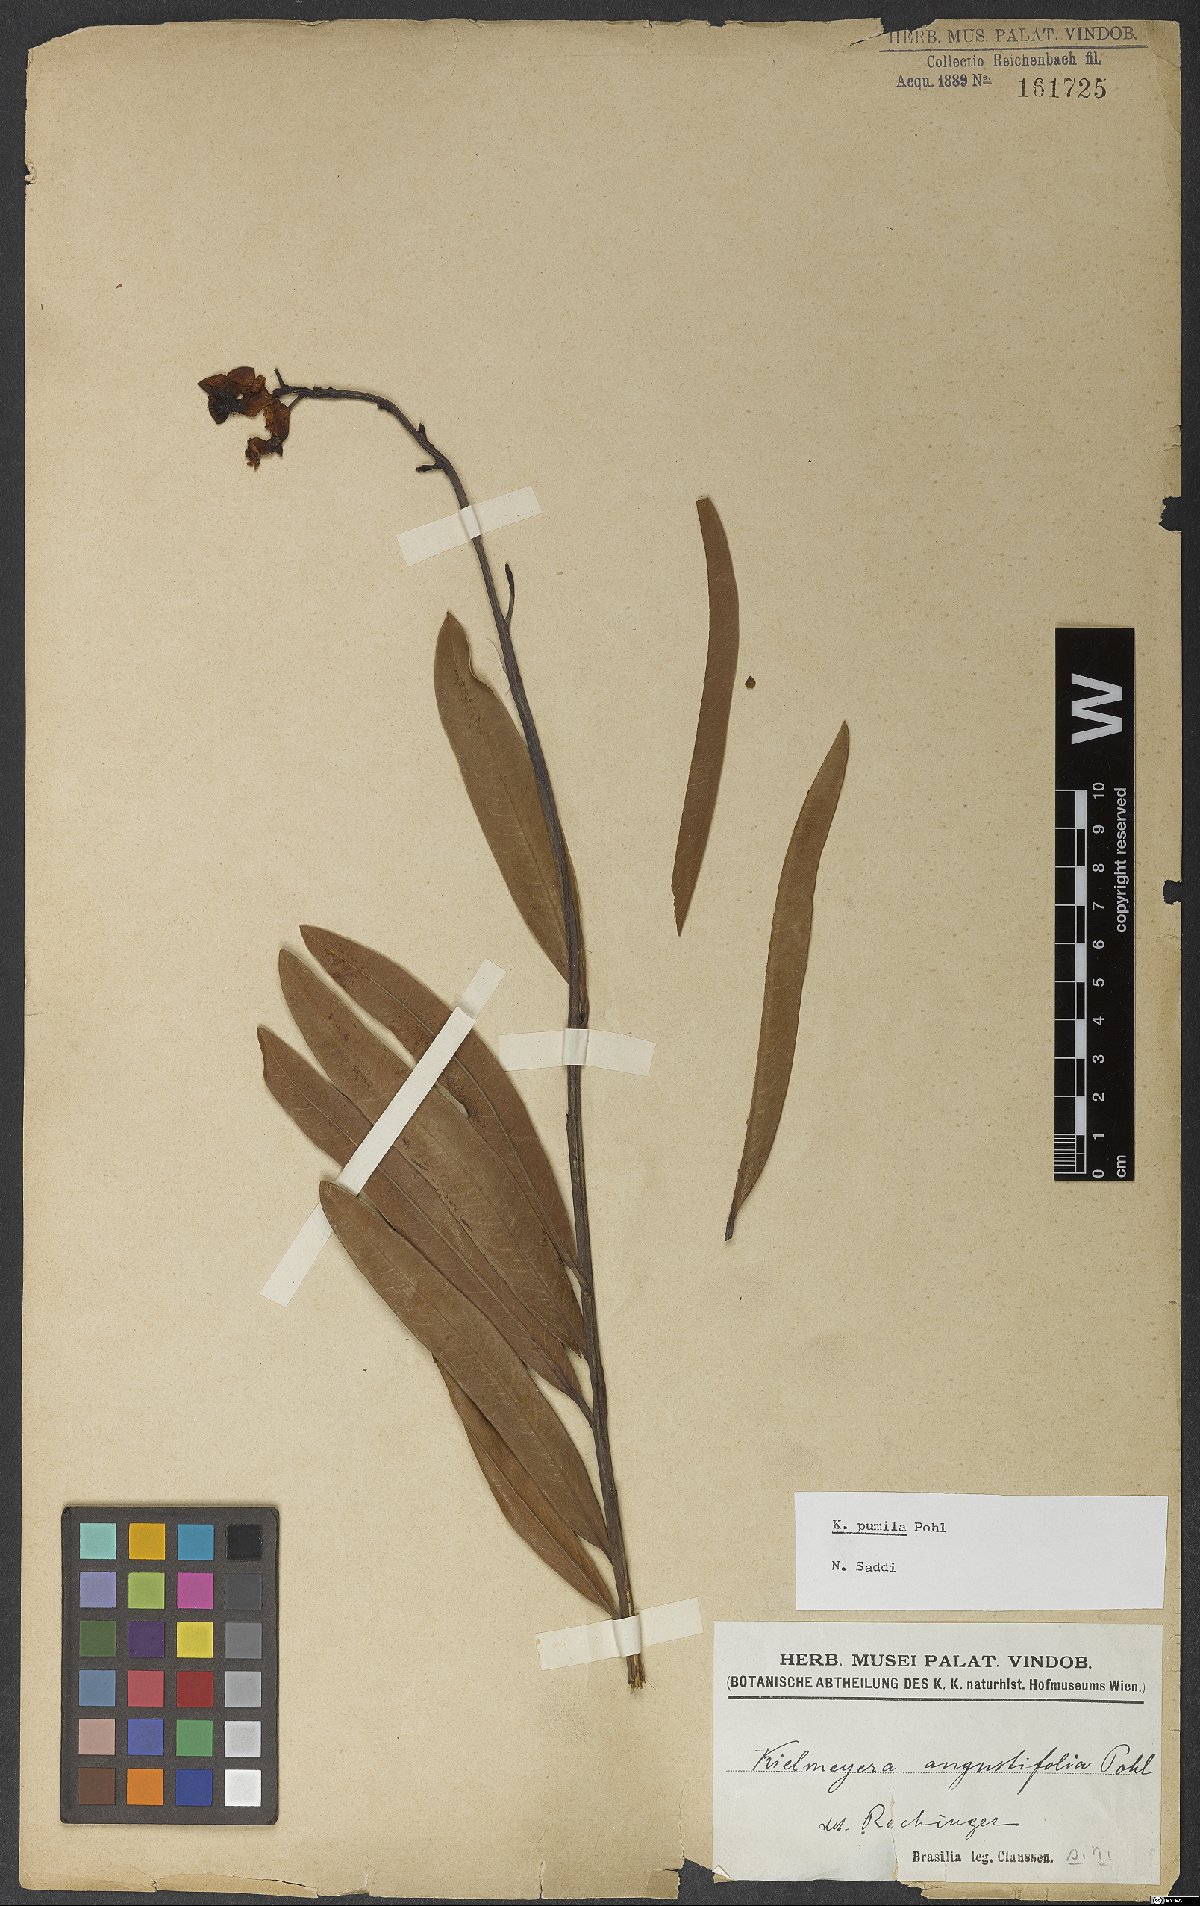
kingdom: Plantae
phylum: Tracheophyta
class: Magnoliopsida
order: Malpighiales
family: Calophyllaceae
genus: Kielmeyera
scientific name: Kielmeyera pumila
